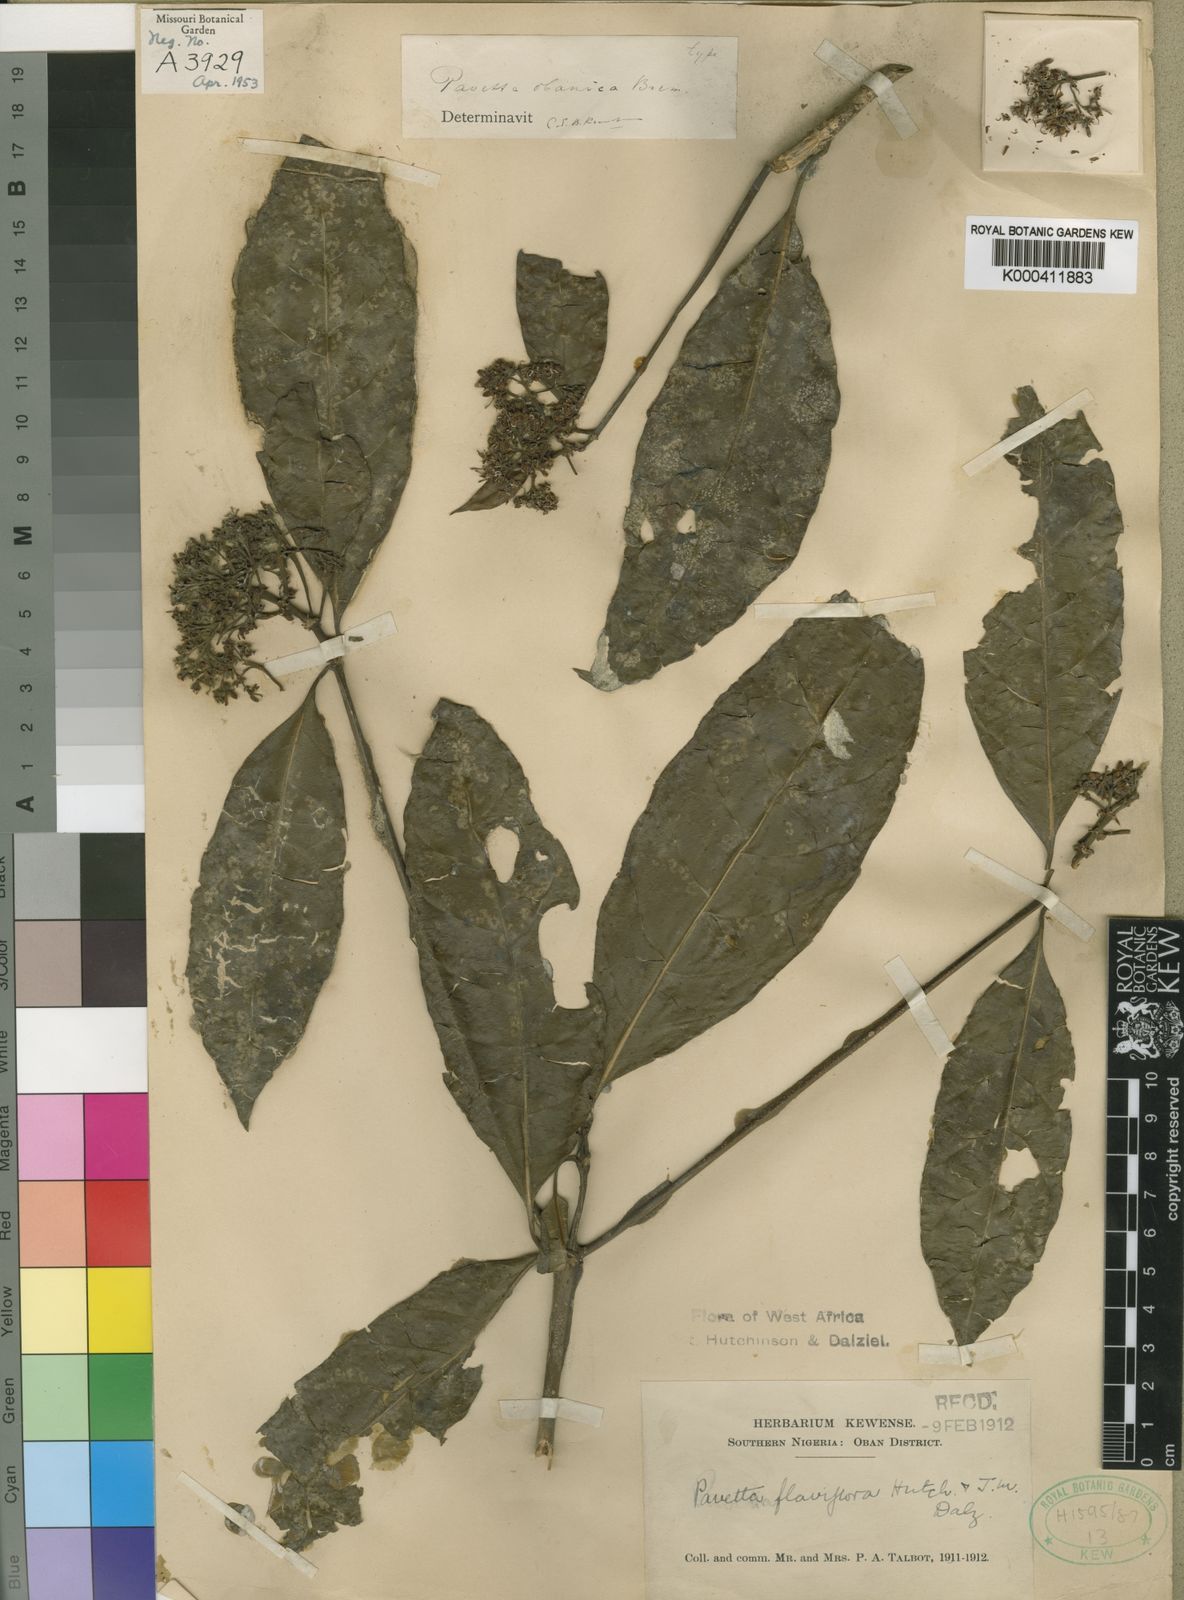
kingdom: Plantae
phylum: Tracheophyta
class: Magnoliopsida
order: Gentianales
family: Rubiaceae
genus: Pavetta
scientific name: Pavetta obanica
